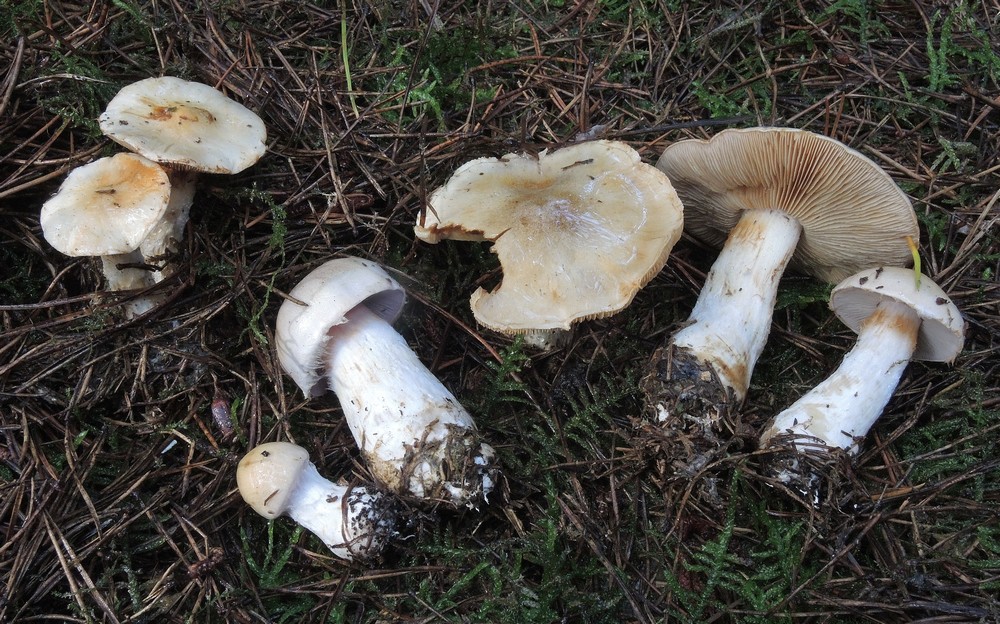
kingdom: Fungi
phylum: Basidiomycota
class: Agaricomycetes
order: Agaricales
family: Cortinariaceae
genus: Thaxterogaster
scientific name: Thaxterogaster leucophanes
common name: fløde-slørhat
